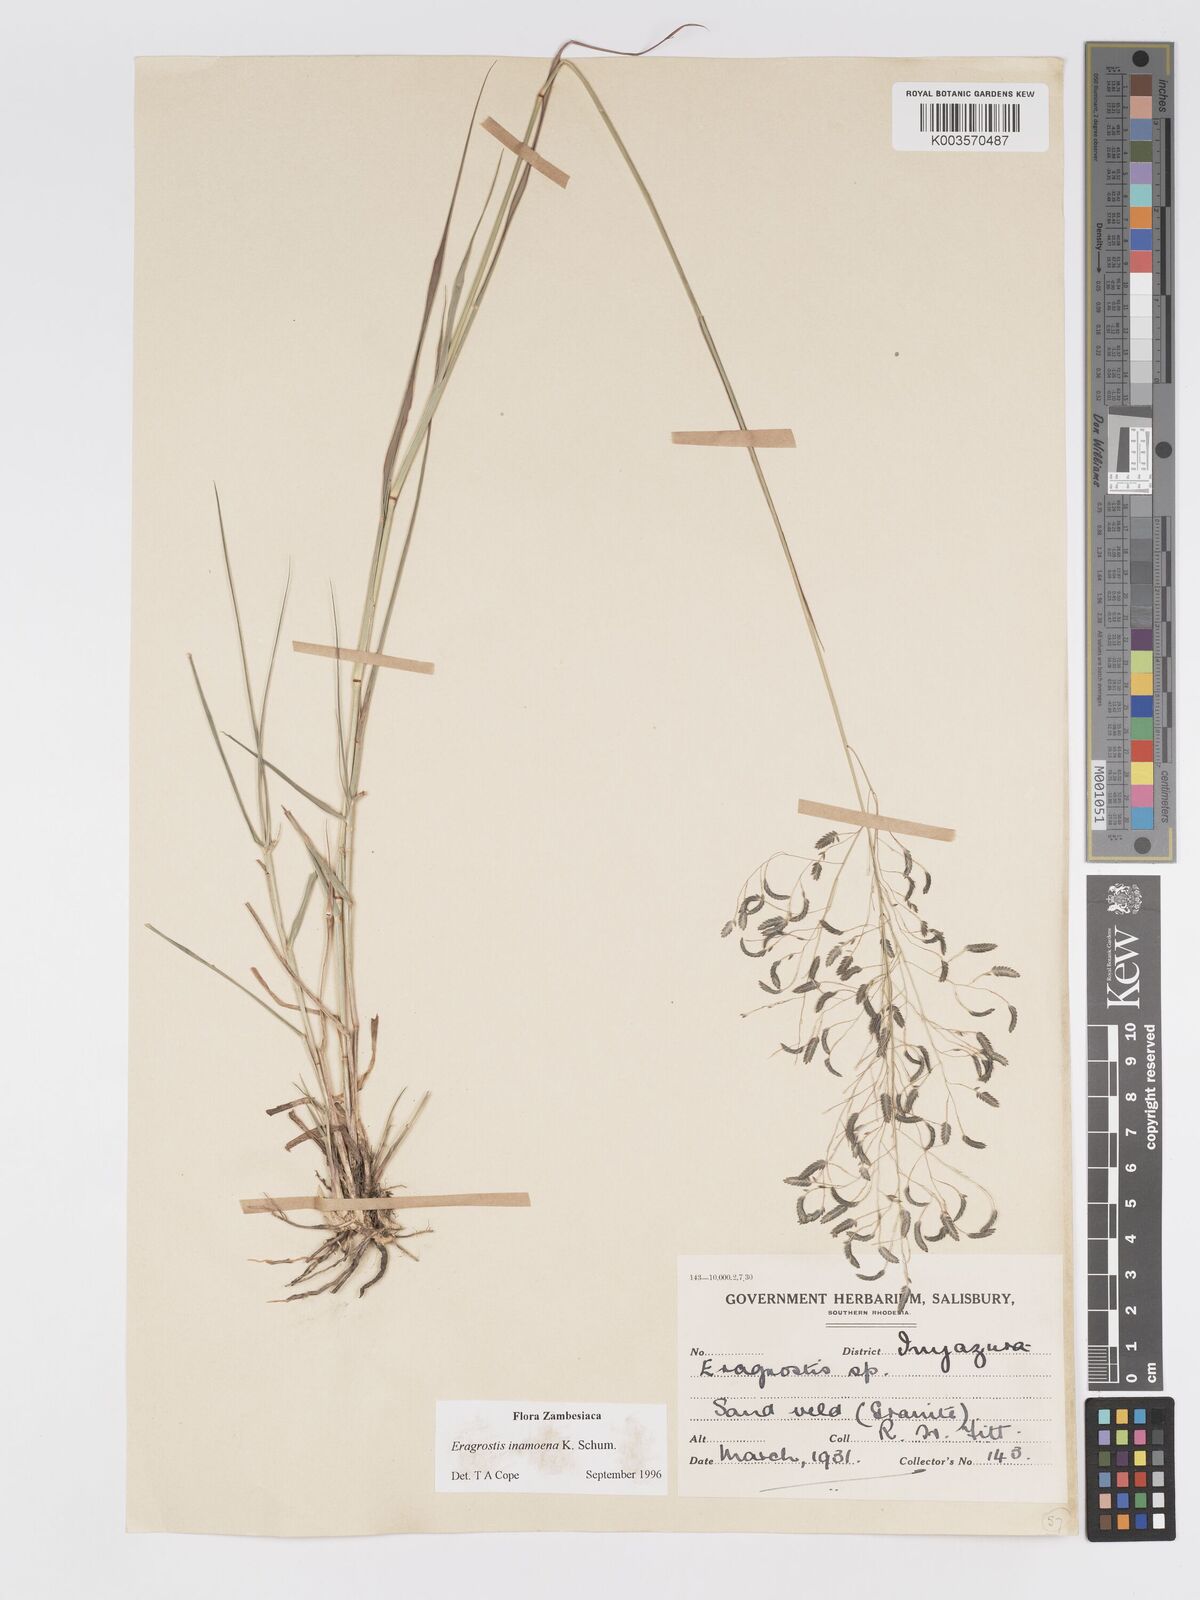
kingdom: Plantae
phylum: Tracheophyta
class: Liliopsida
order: Poales
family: Poaceae
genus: Eragrostis
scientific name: Eragrostis inamoena
